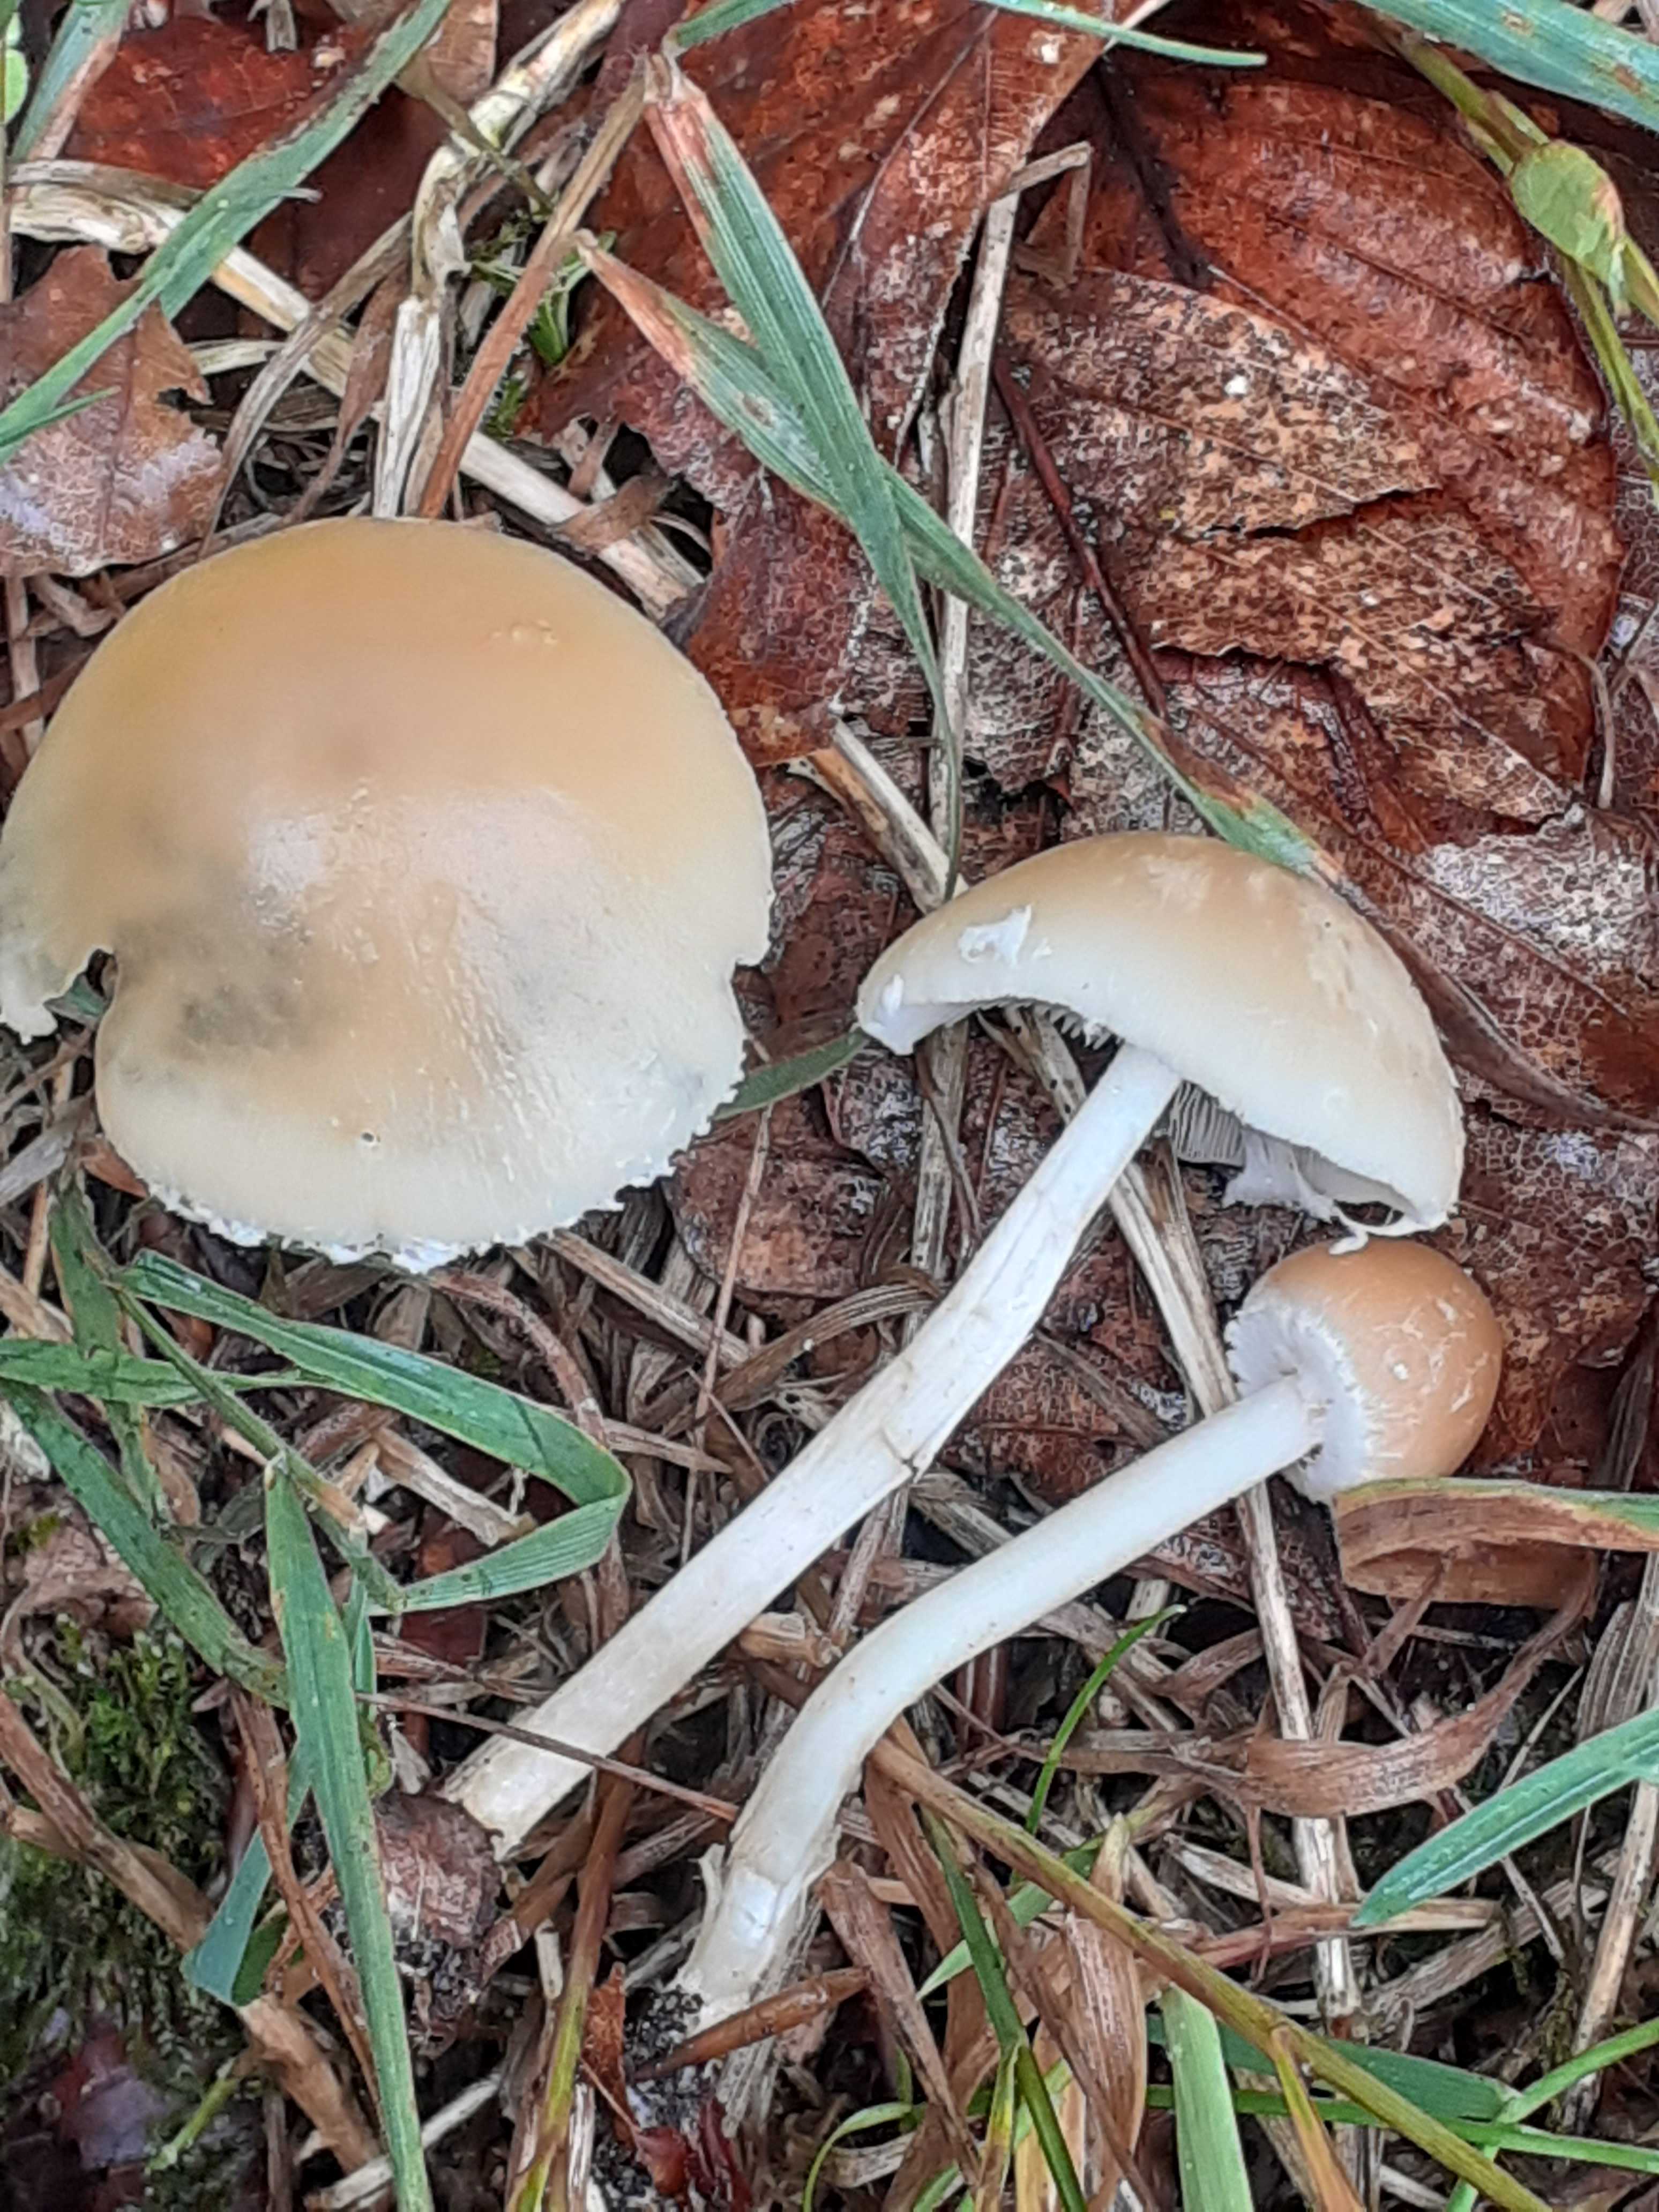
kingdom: Fungi
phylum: Basidiomycota
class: Agaricomycetes
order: Agaricales
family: Psathyrellaceae
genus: Candolleomyces
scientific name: Candolleomyces candolleanus
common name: Candolles mørkhat
